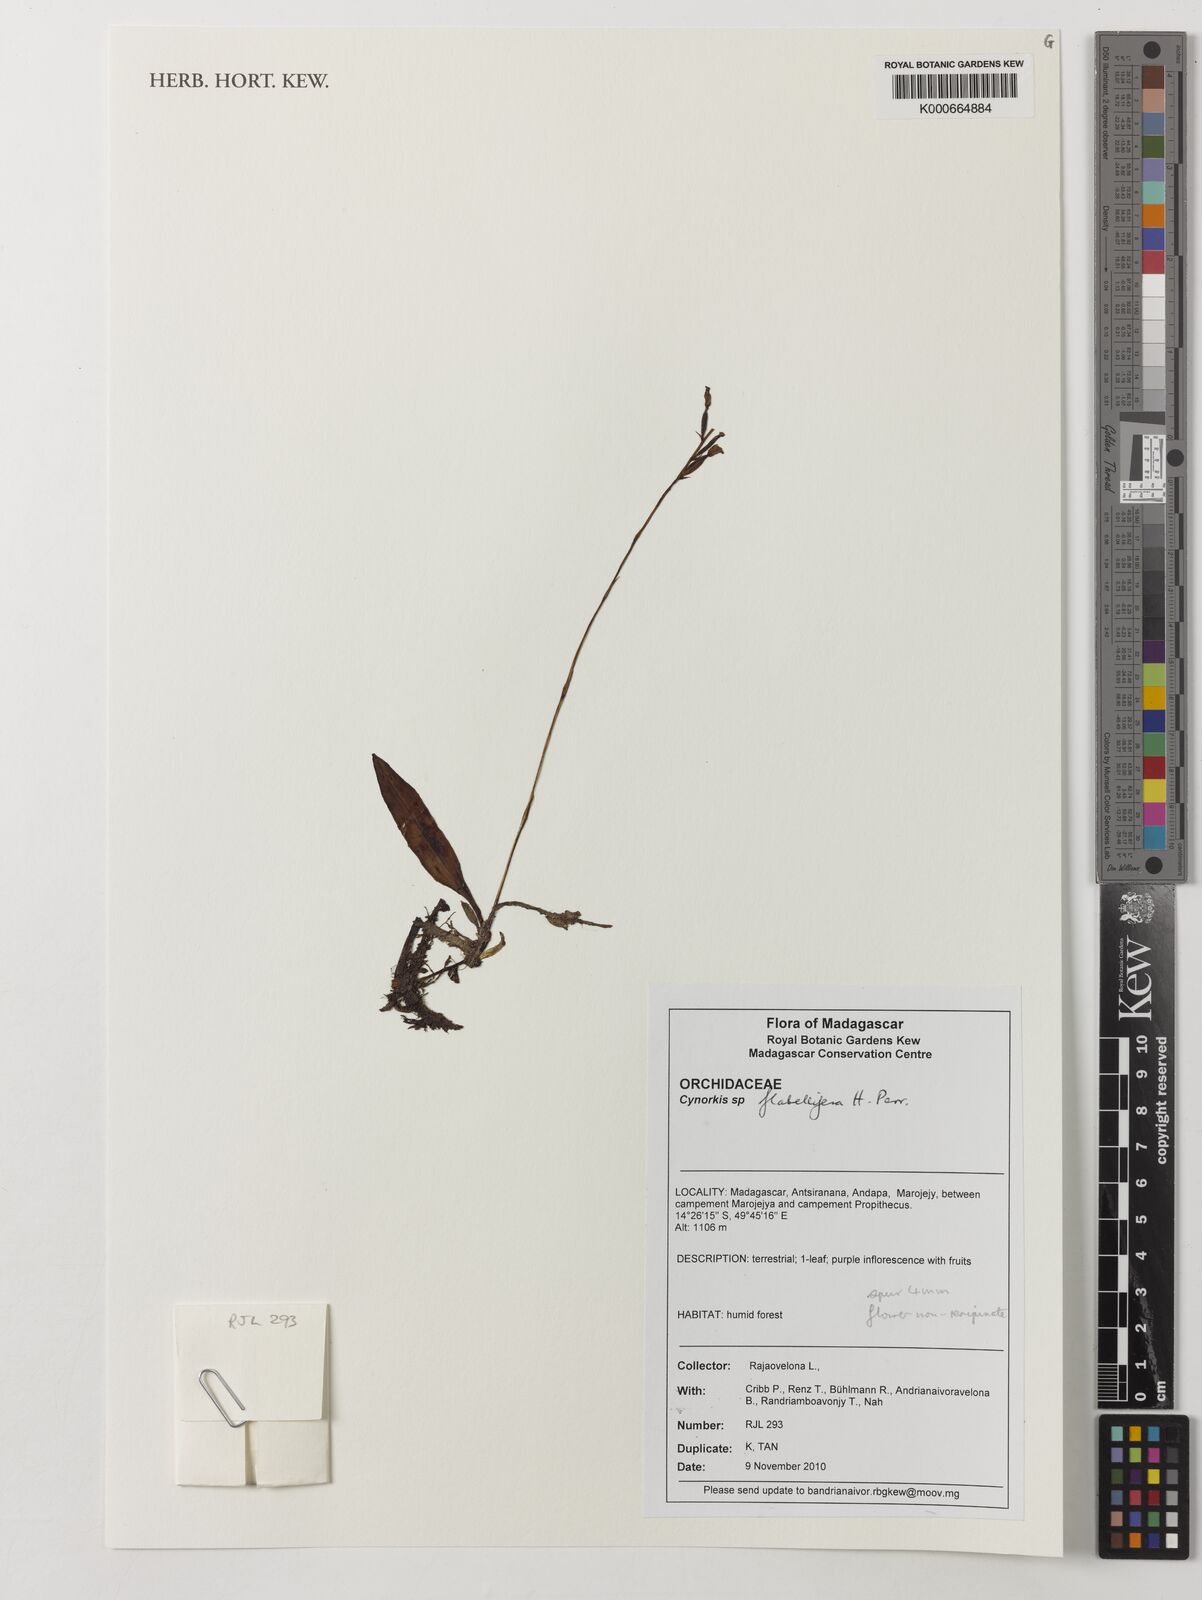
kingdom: Plantae
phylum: Tracheophyta
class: Liliopsida
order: Asparagales
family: Orchidaceae
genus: Cynorkis
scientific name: Cynorkis flabellifera
